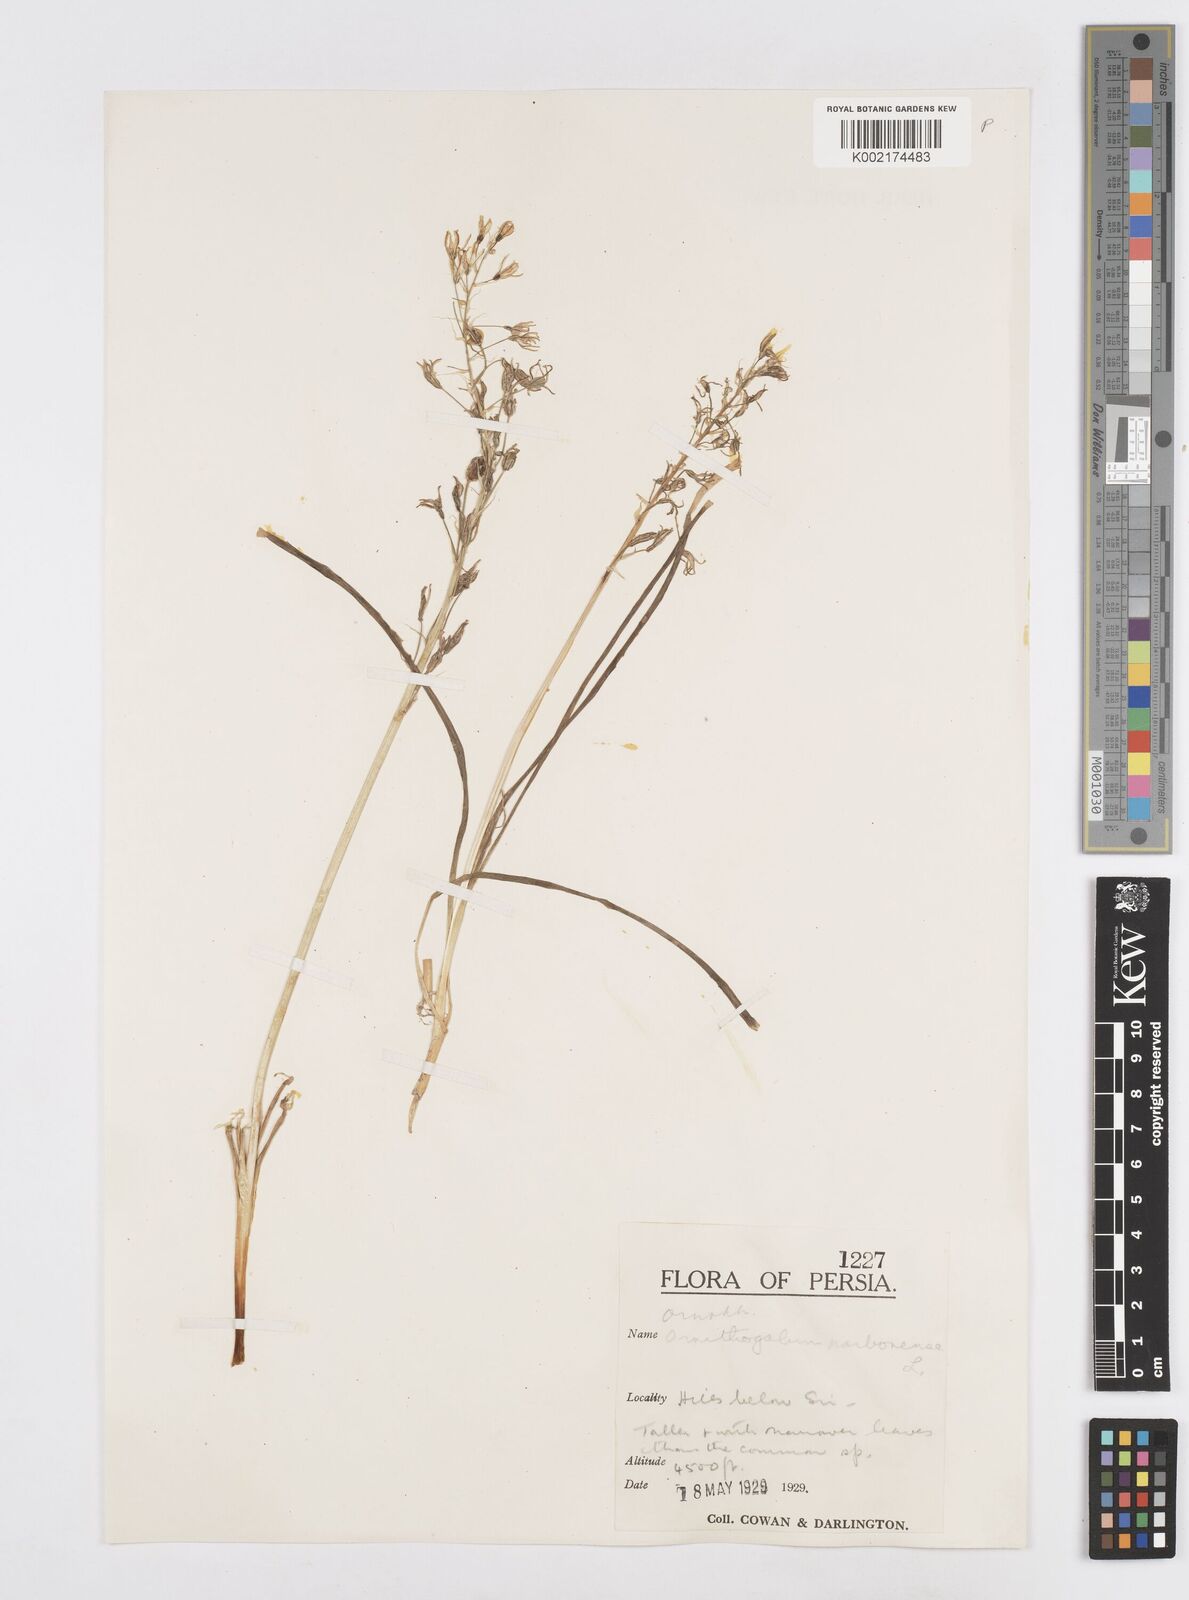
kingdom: Plantae
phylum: Tracheophyta
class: Liliopsida
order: Asparagales
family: Asparagaceae
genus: Ornithogalum
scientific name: Ornithogalum narbonense
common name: Bath-asparagus
